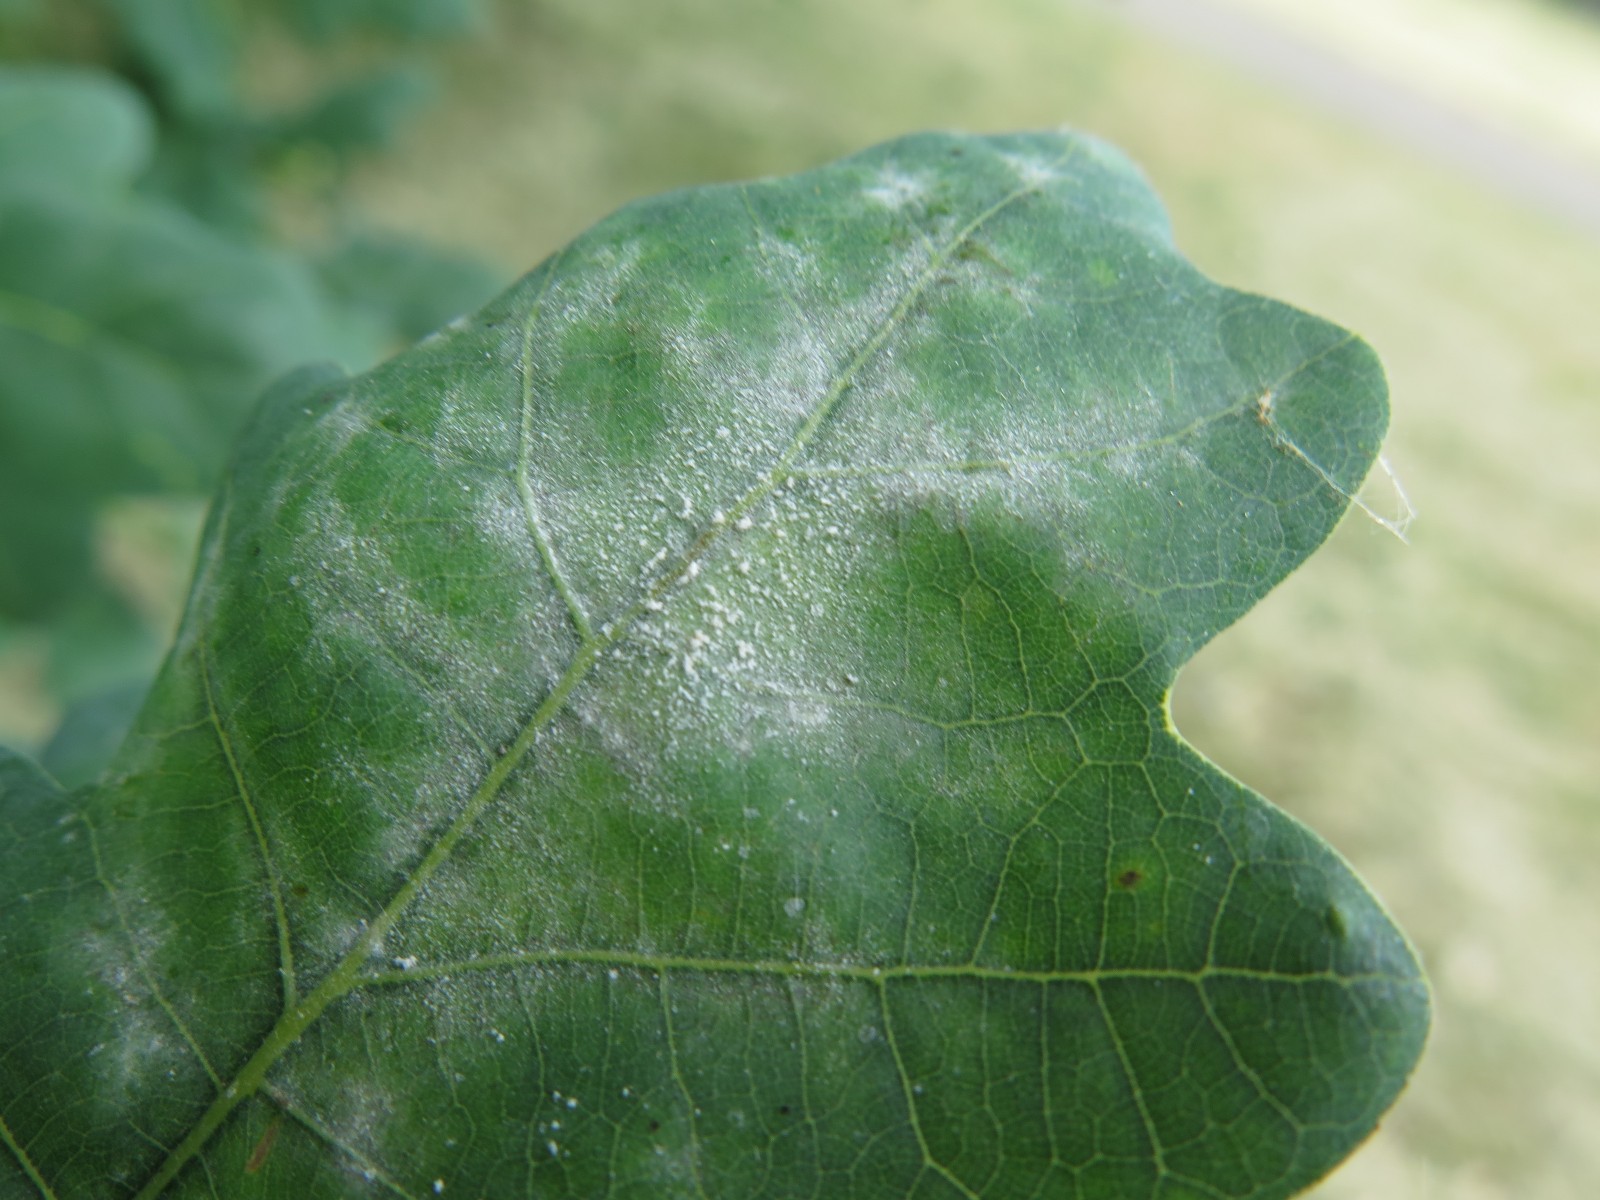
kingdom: Fungi
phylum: Ascomycota
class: Leotiomycetes
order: Helotiales
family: Erysiphaceae
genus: Erysiphe
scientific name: Erysiphe alphitoides
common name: ege-meldug
